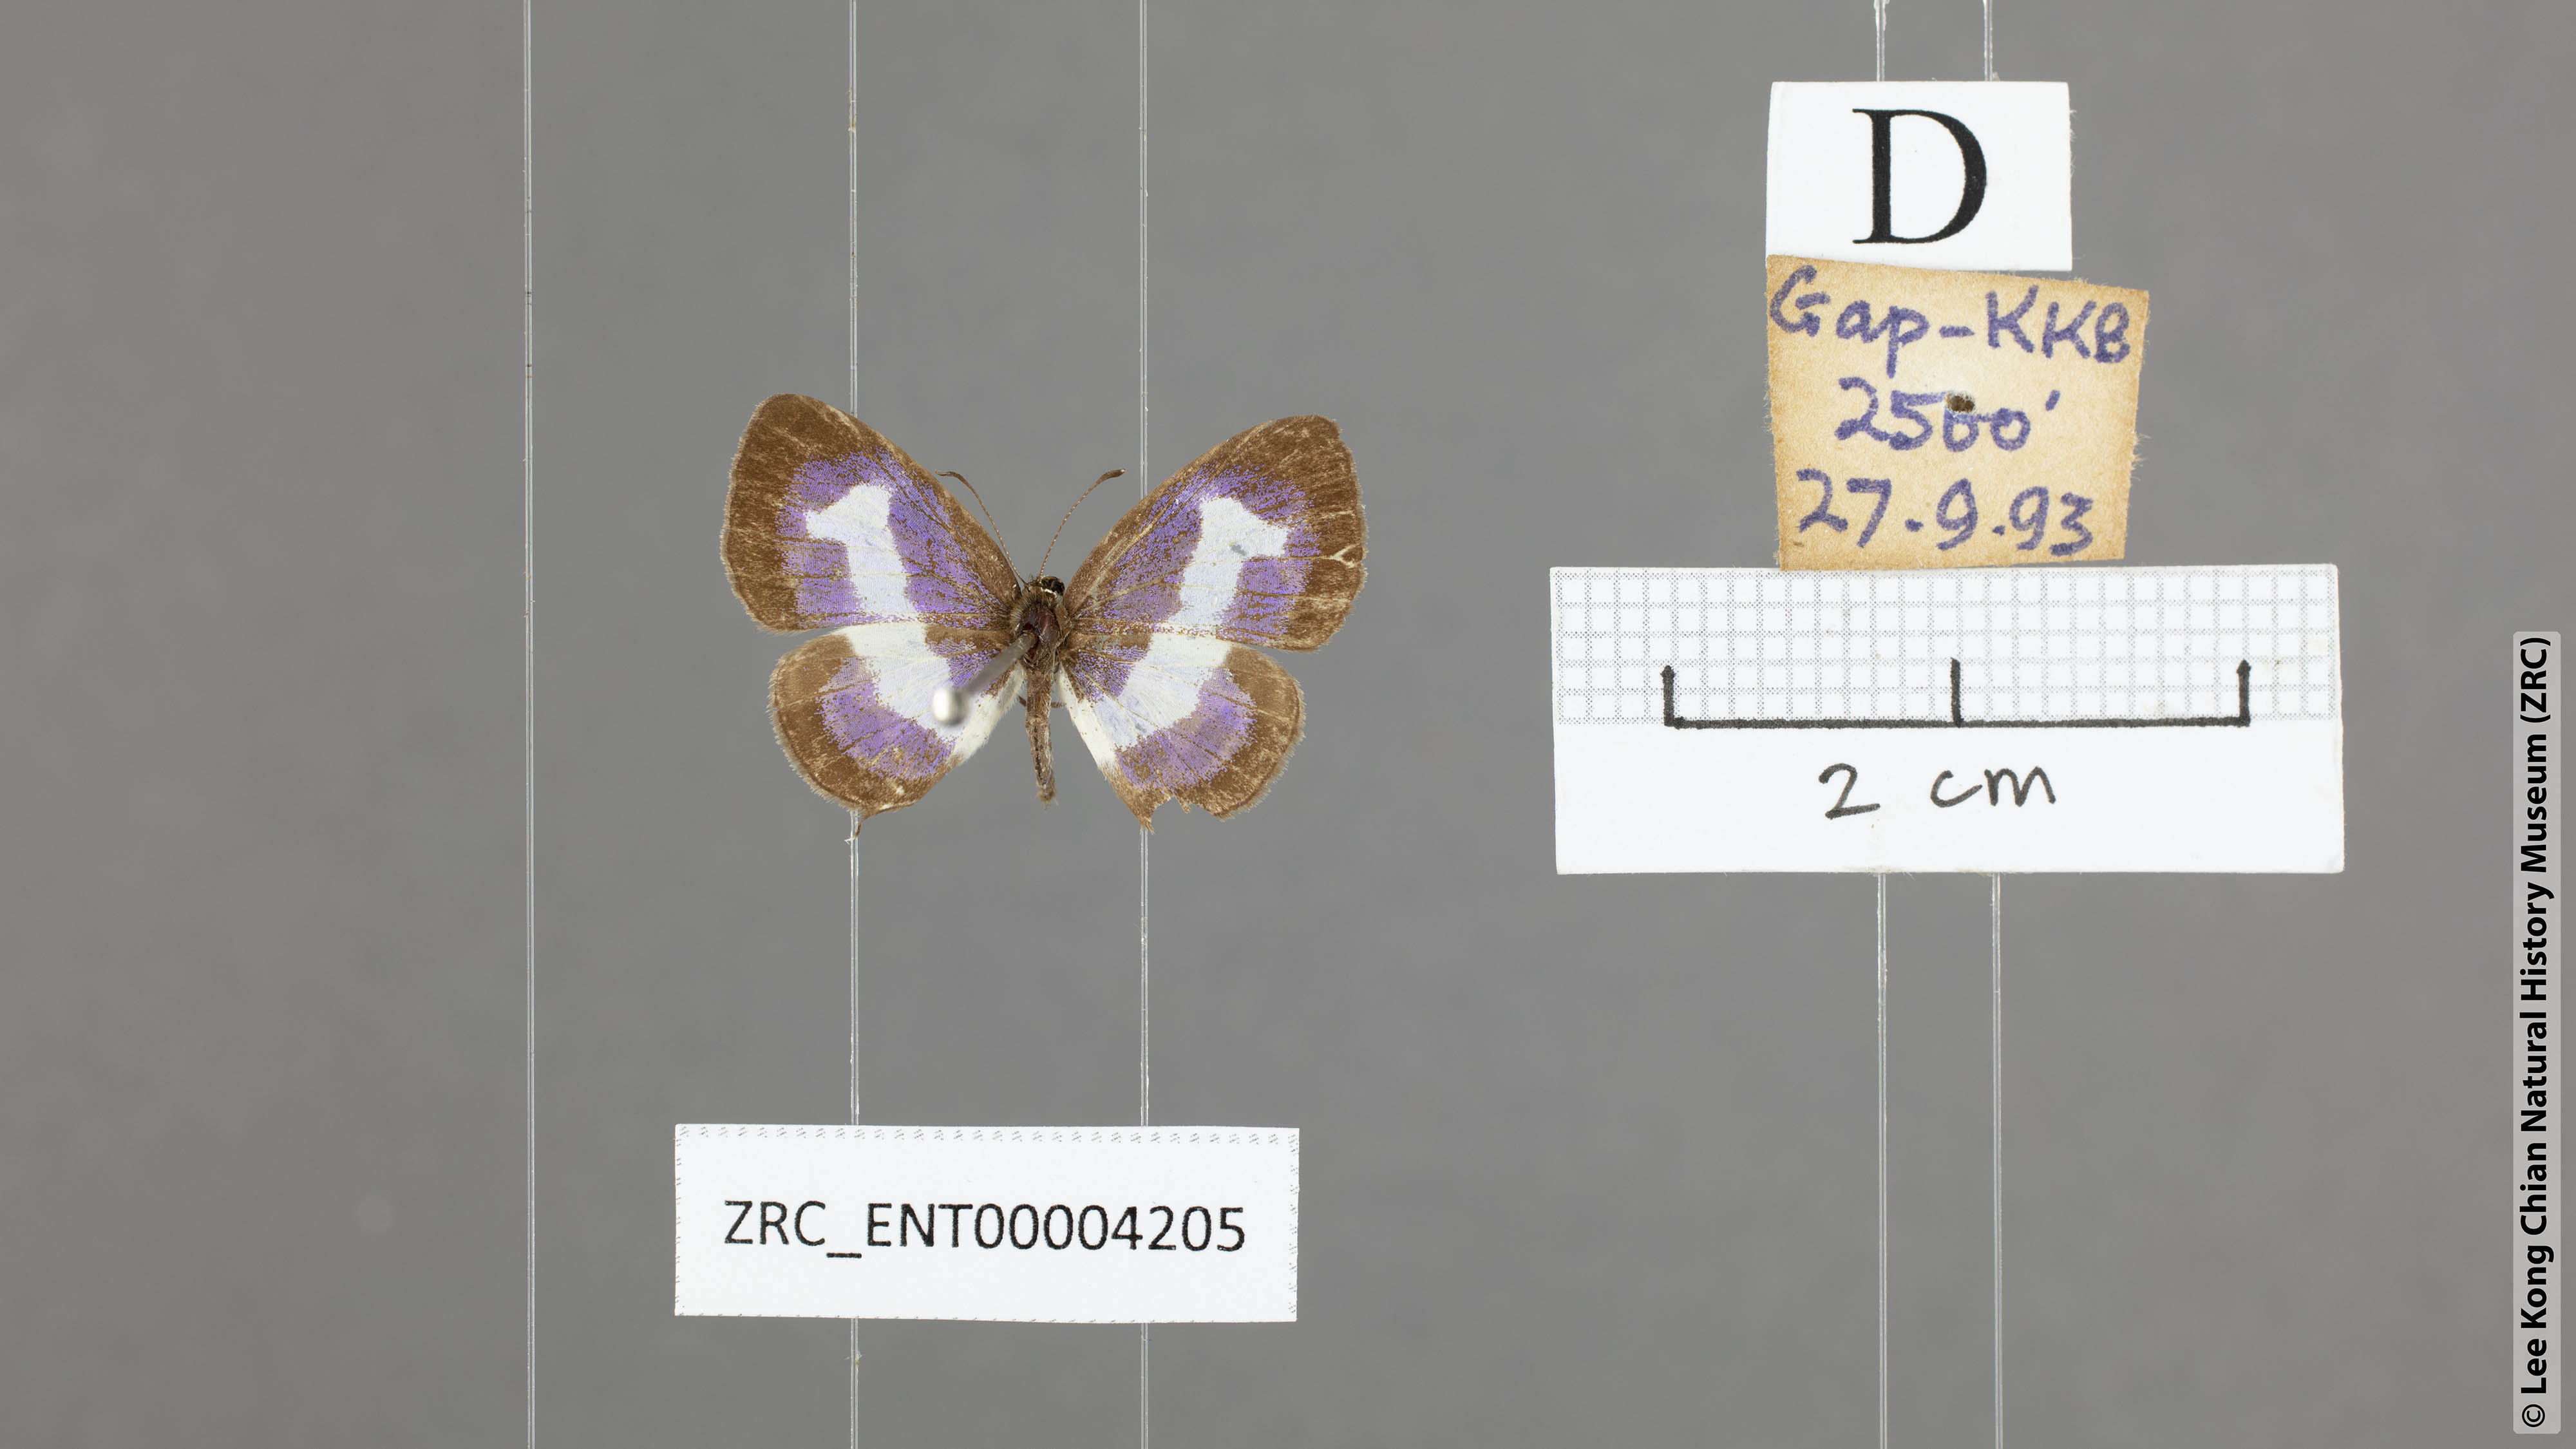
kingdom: Animalia
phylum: Arthropoda
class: Insecta
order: Lepidoptera
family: Lycaenidae
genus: Discolampa
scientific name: Discolampa ethion
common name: Banded blue pierrot
